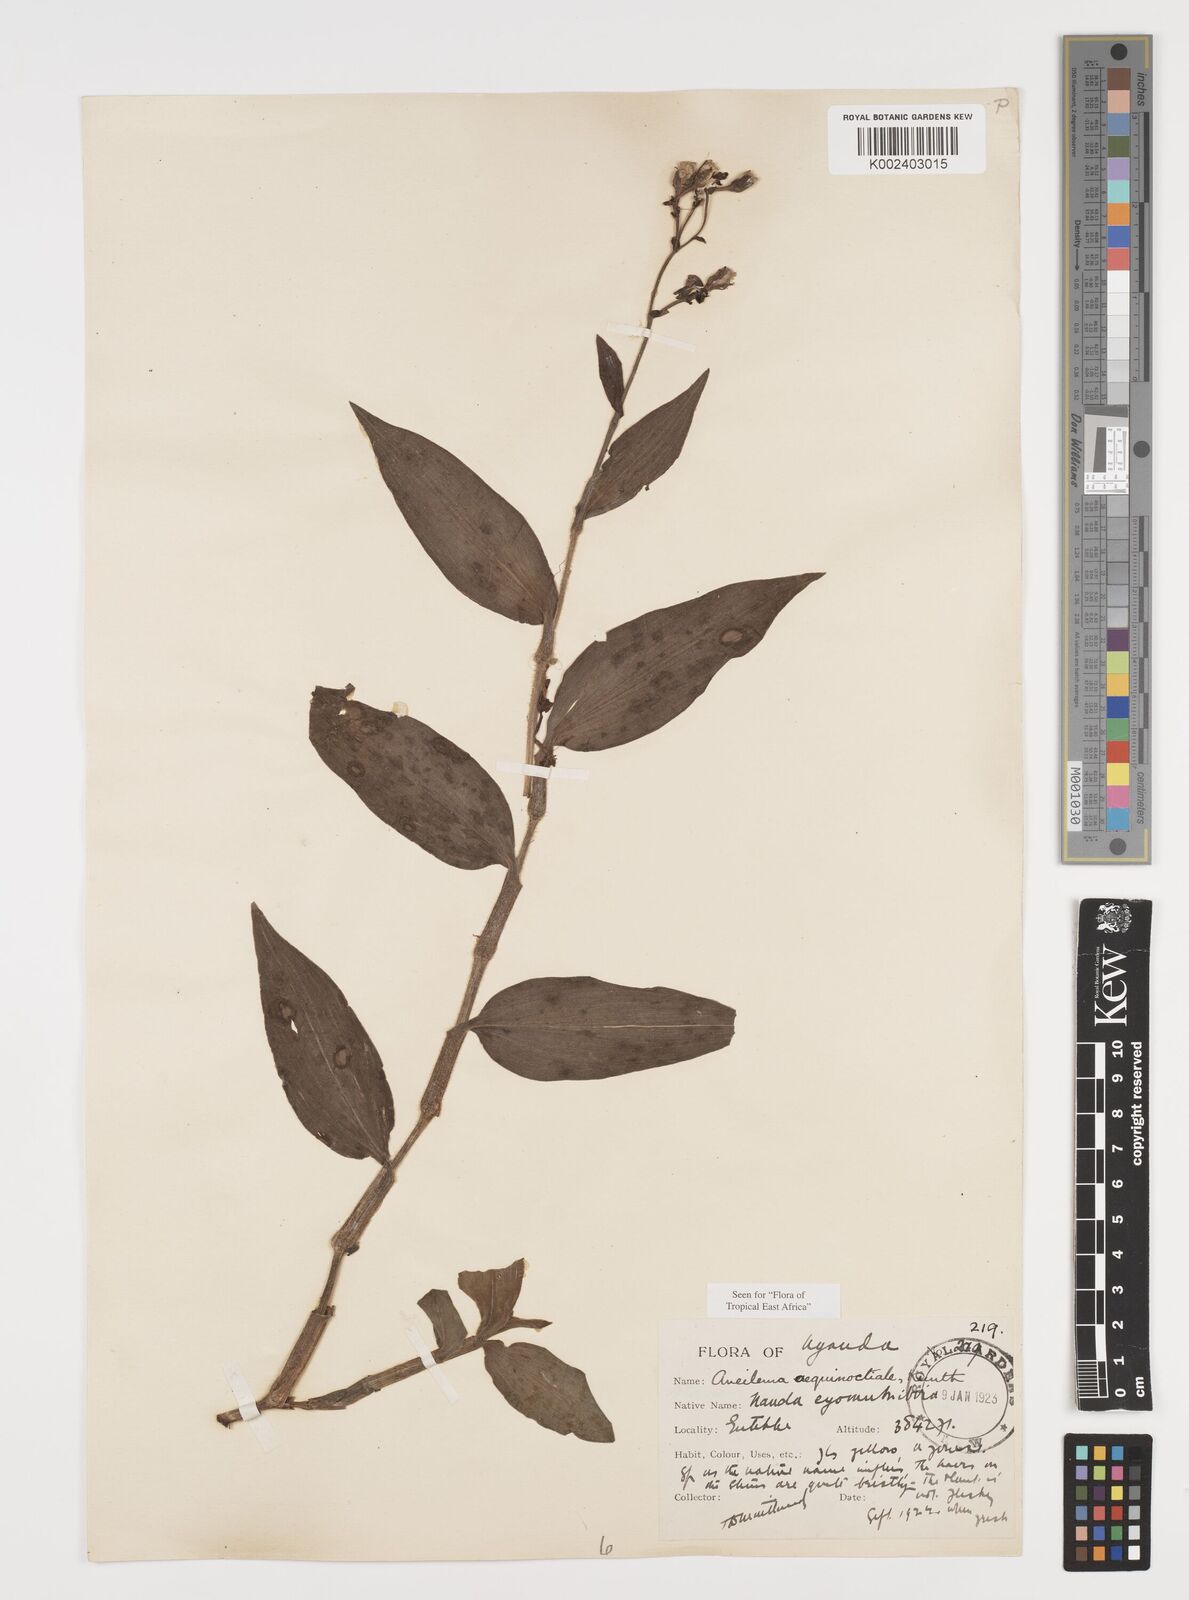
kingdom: Plantae
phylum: Tracheophyta
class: Liliopsida
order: Commelinales
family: Commelinaceae
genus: Aneilema
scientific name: Aneilema aequinoctiale
